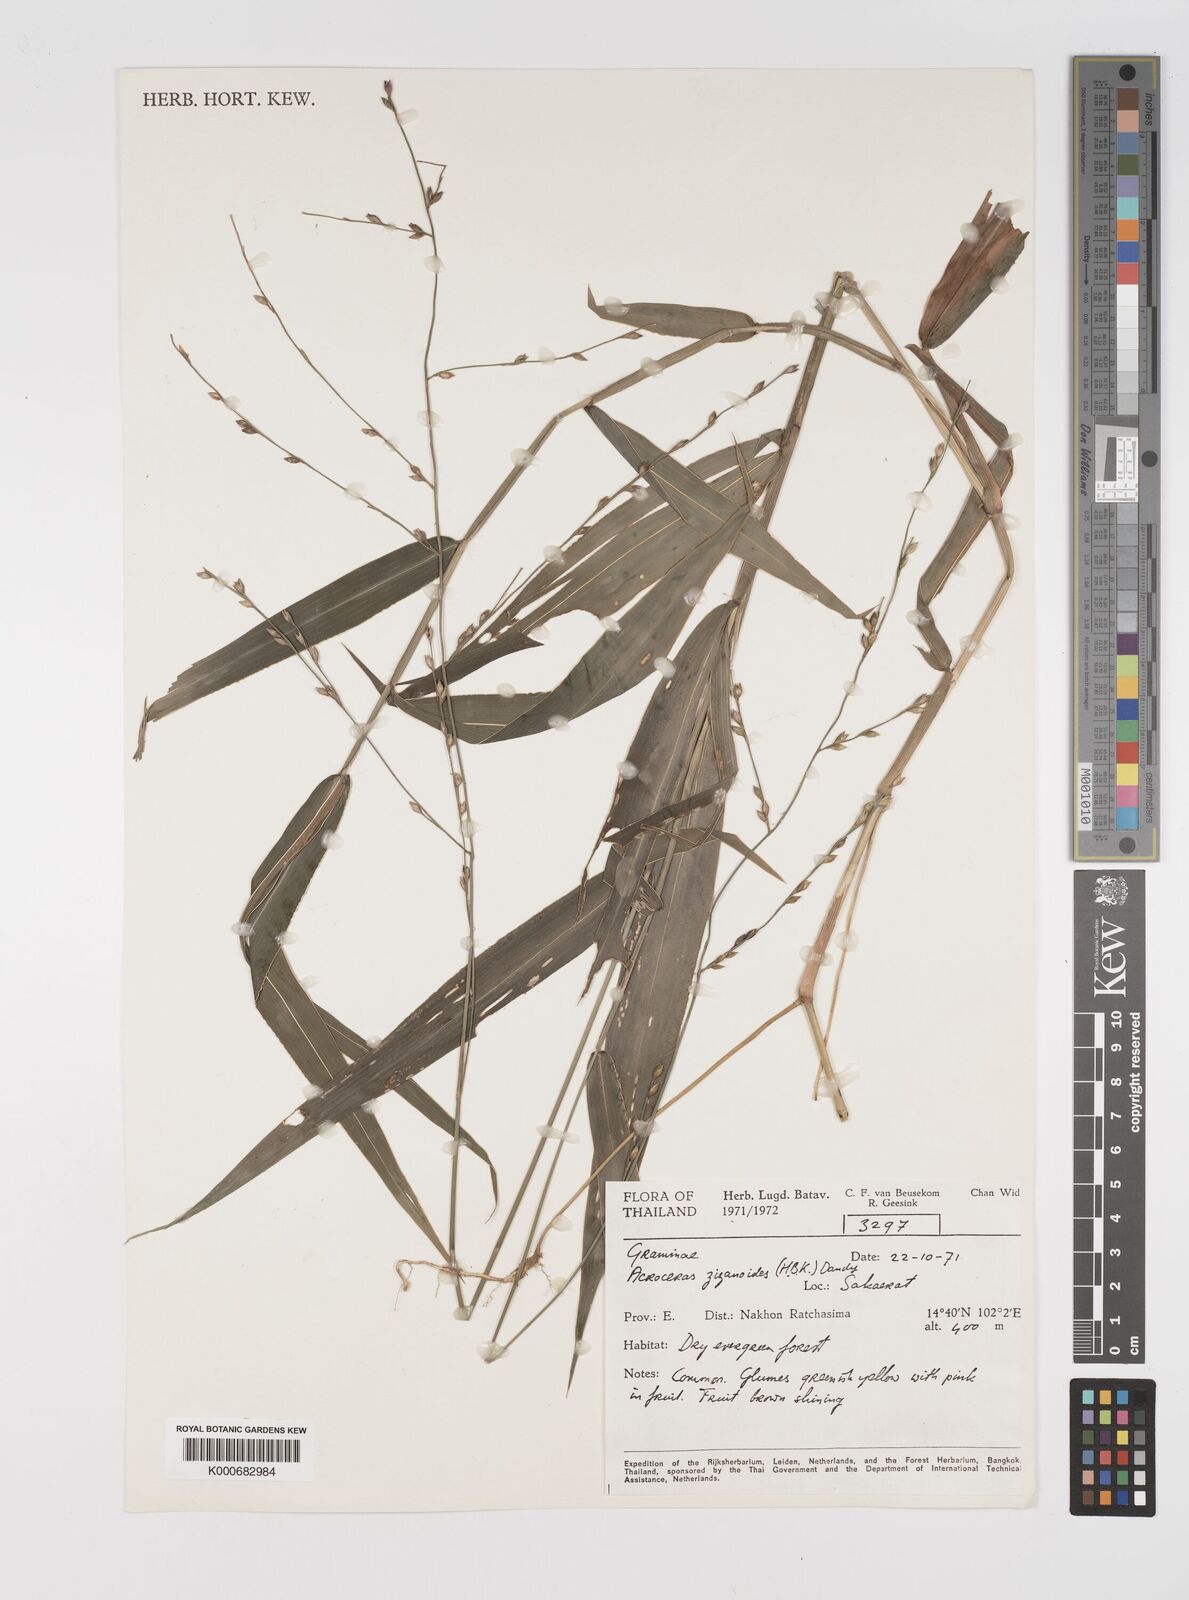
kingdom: Plantae
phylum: Tracheophyta
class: Liliopsida
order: Poales
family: Poaceae
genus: Acroceras
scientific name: Acroceras
